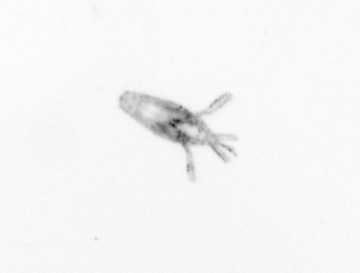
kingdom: Animalia
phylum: Arthropoda
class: Copepoda
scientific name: Copepoda
